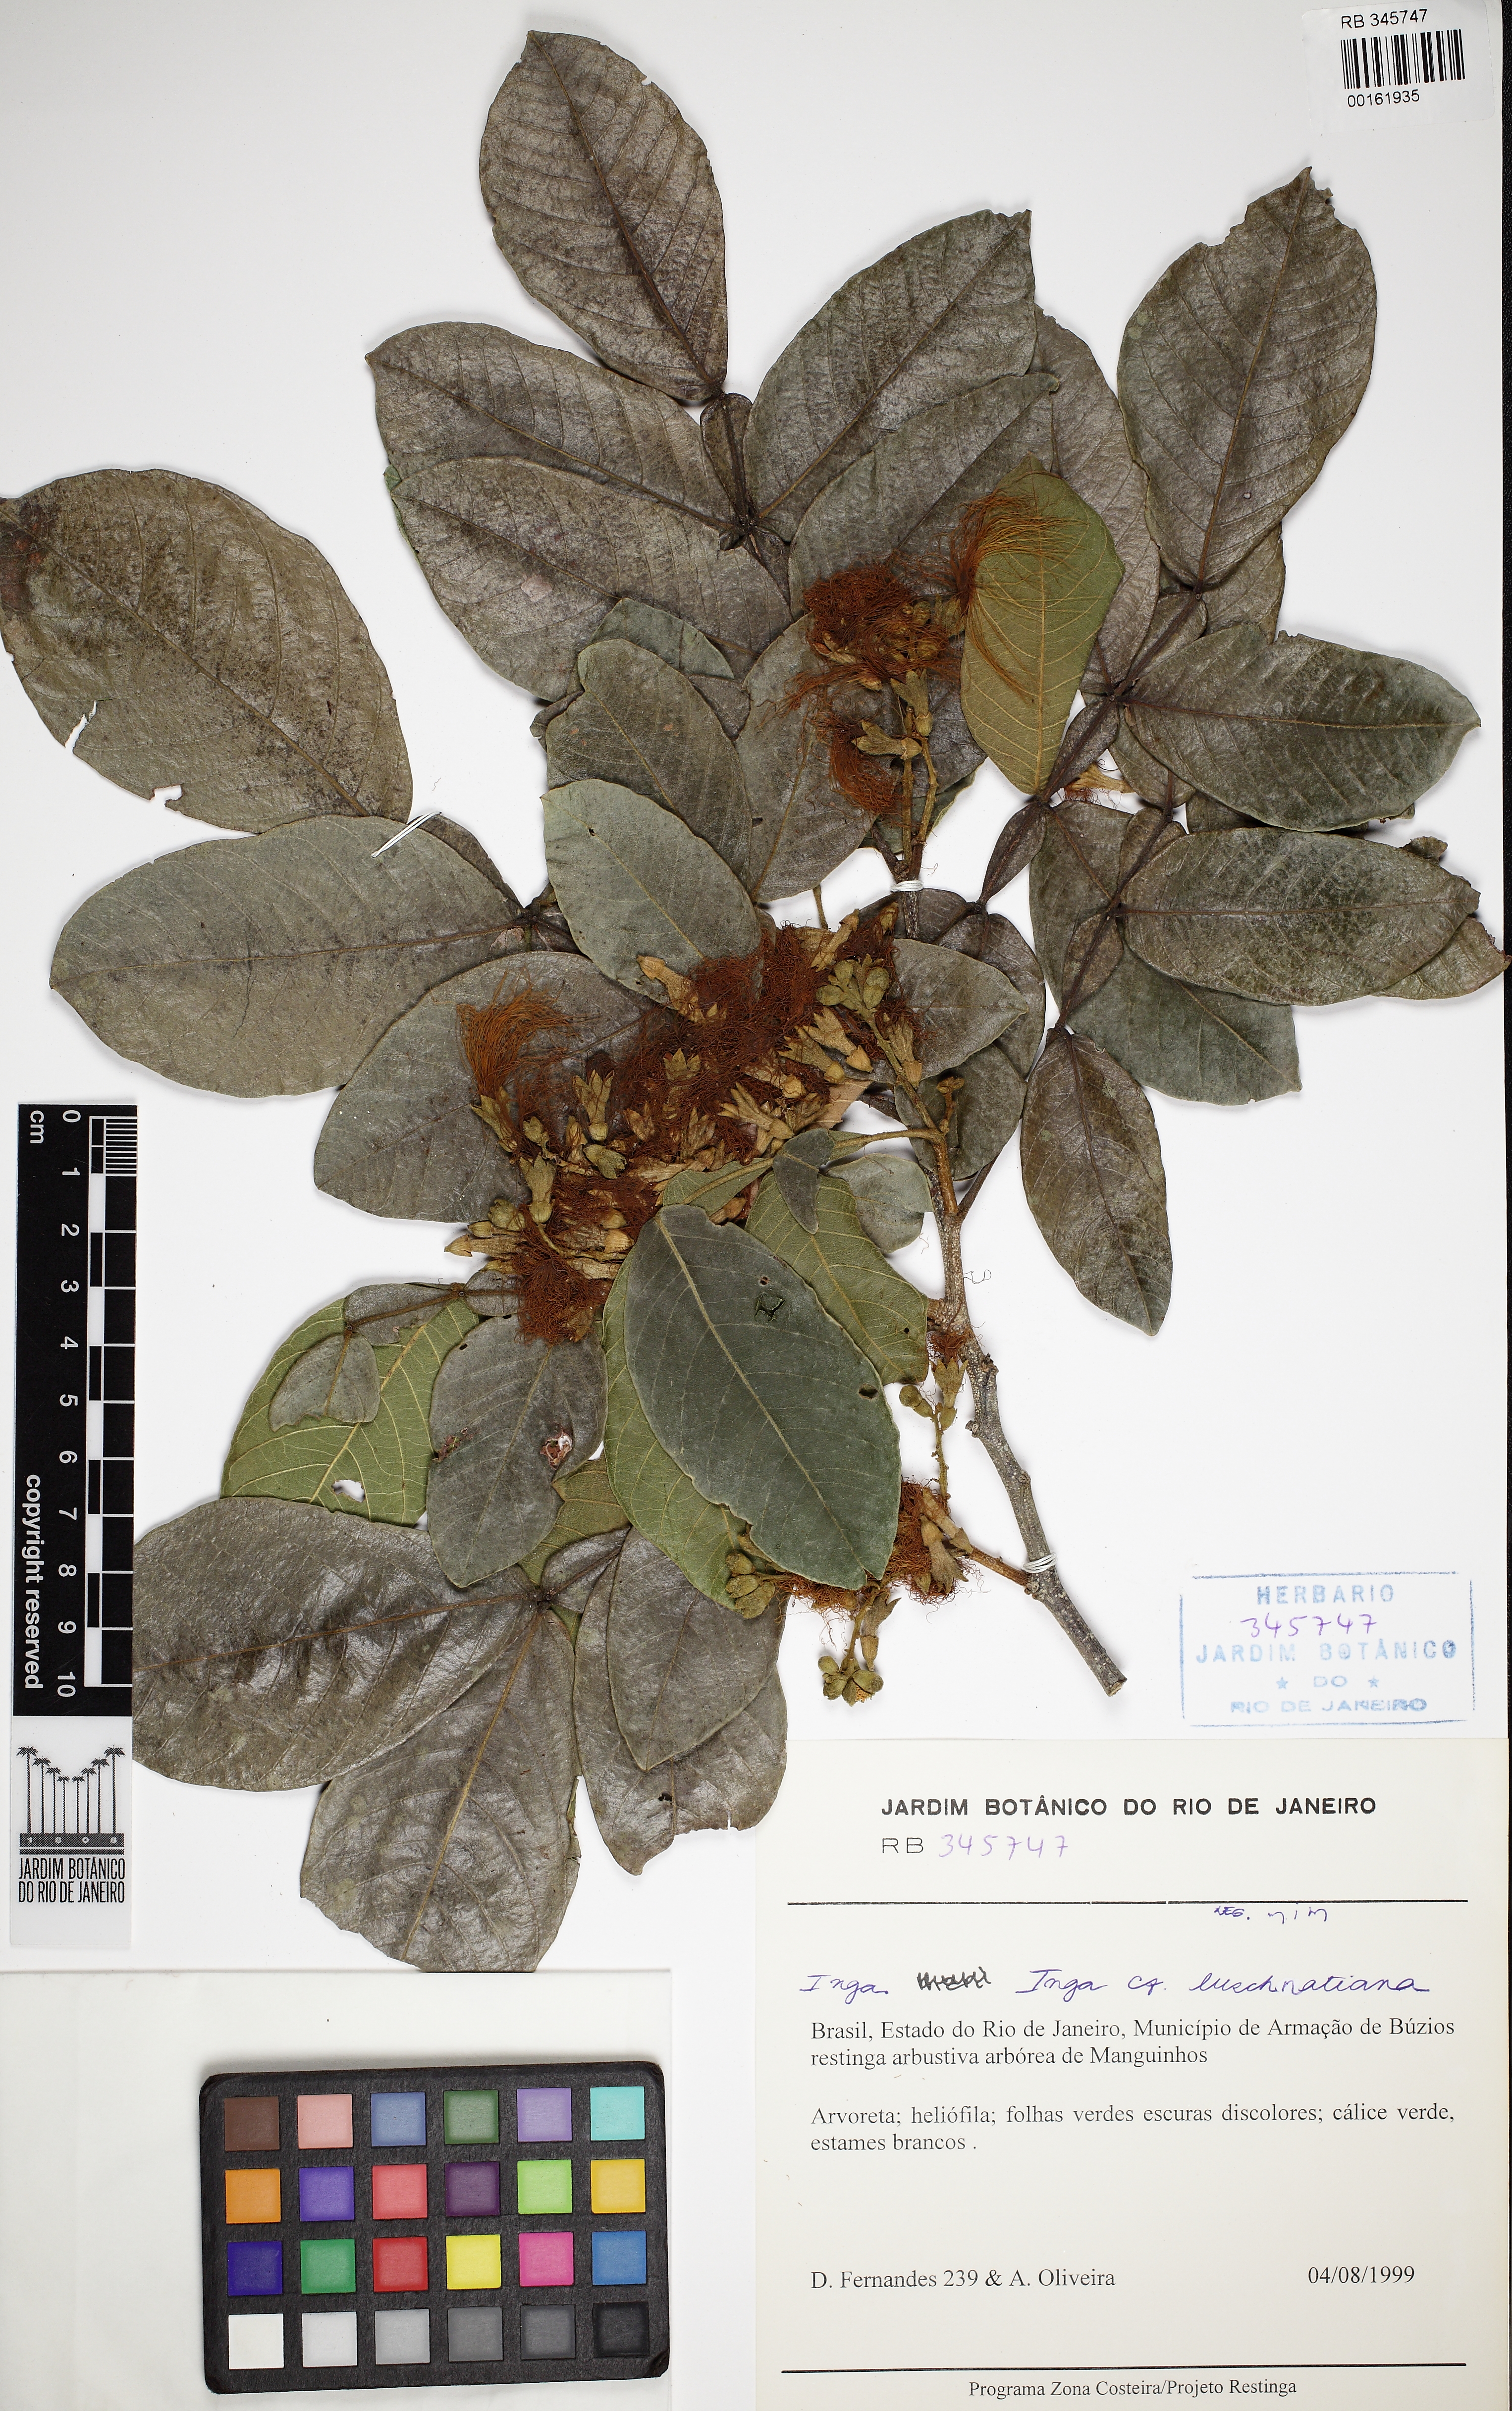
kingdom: Plantae
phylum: Tracheophyta
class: Magnoliopsida
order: Fabales
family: Fabaceae
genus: Inga
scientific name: Inga subnuda
